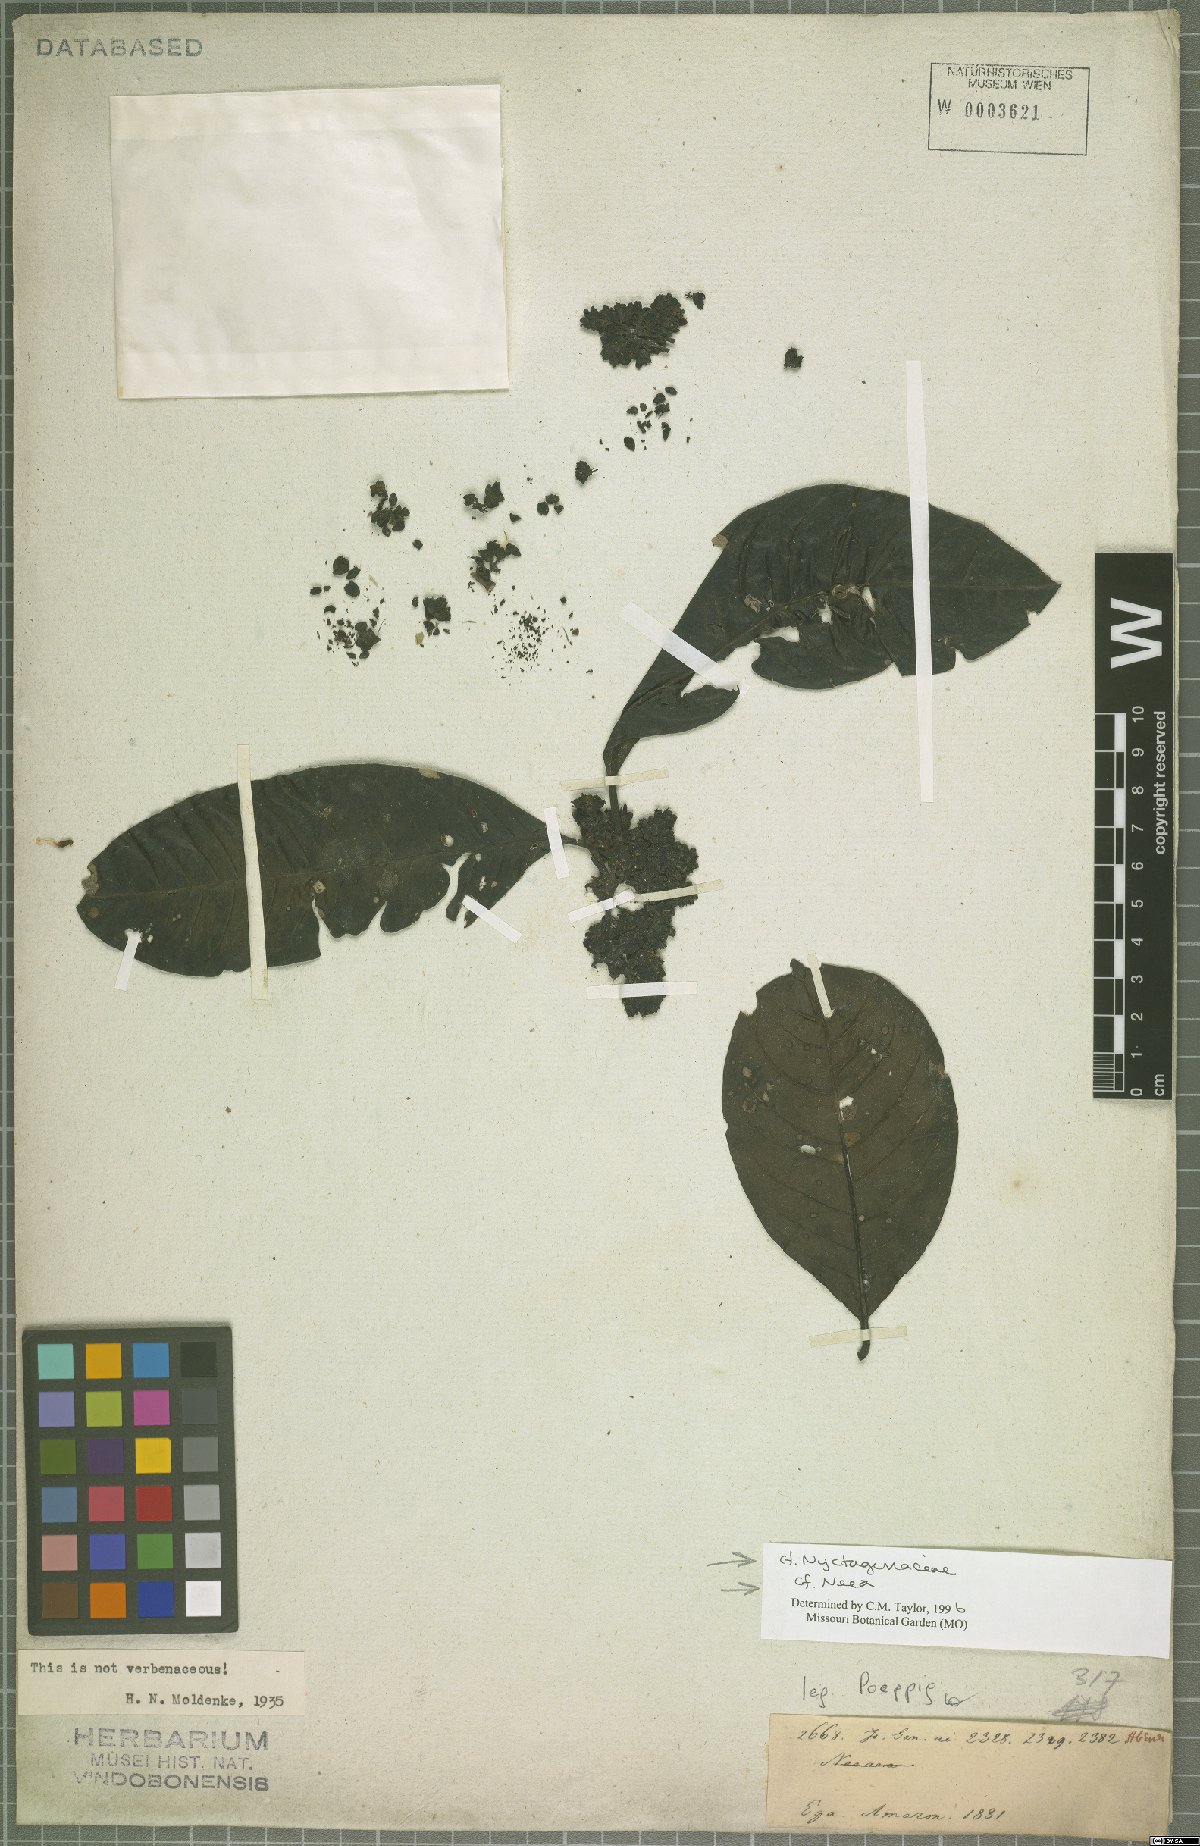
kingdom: Plantae
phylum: Tracheophyta
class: Magnoliopsida
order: Caryophyllales
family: Nyctaginaceae
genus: Neea
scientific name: Neea
